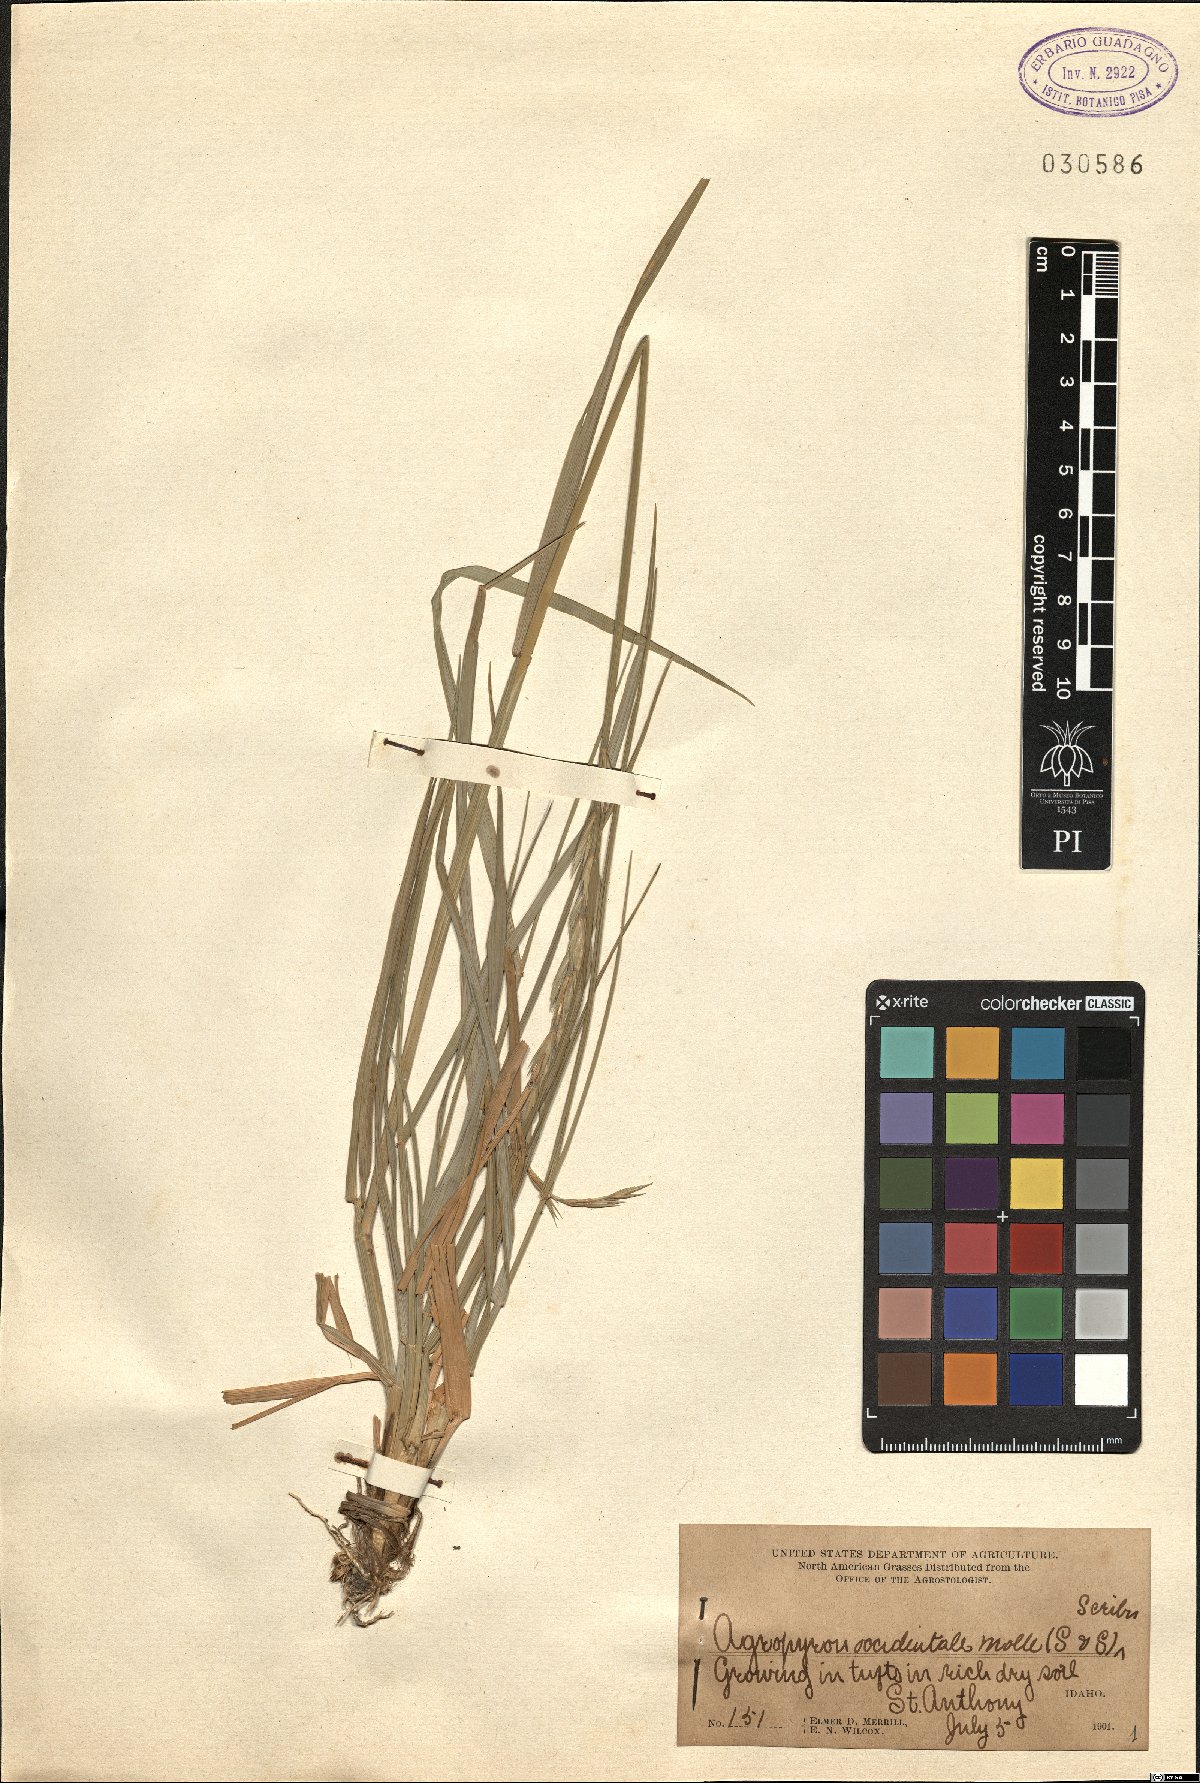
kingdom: Plantae
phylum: Tracheophyta
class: Liliopsida
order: Poales
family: Poaceae
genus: Elymus
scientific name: Elymus smithii
